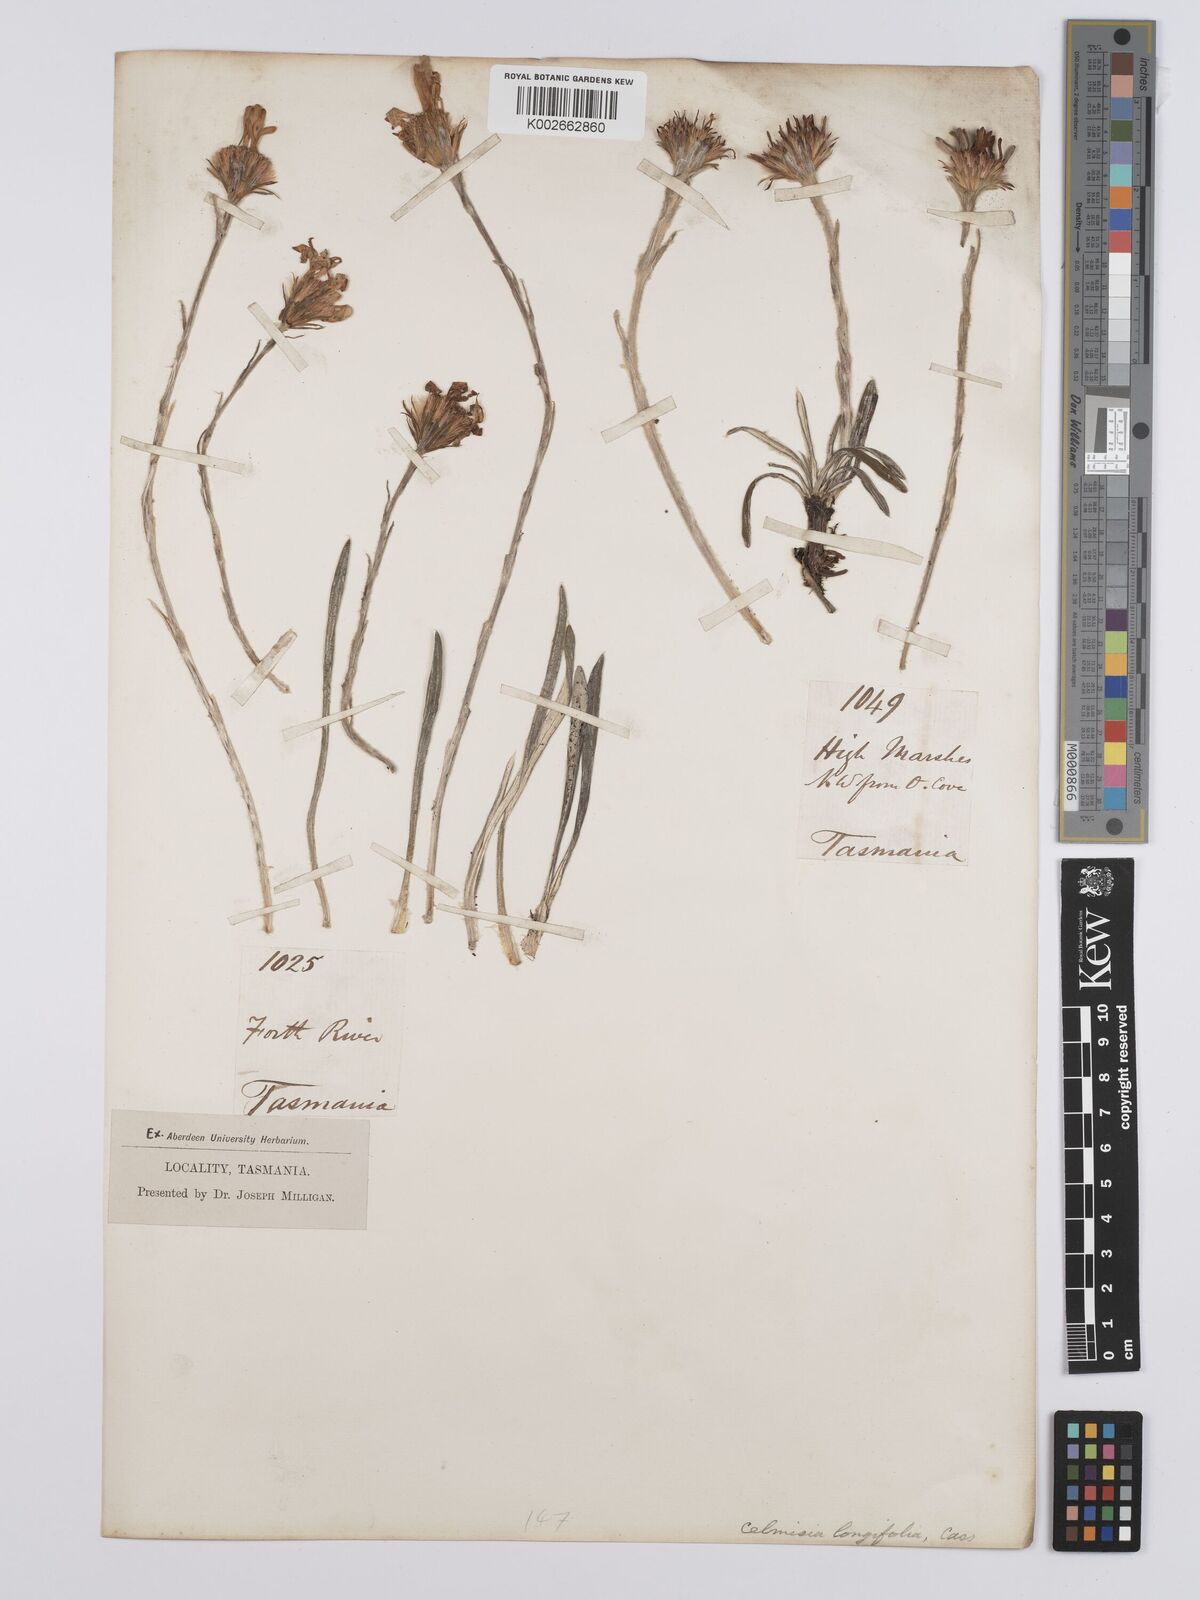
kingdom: Plantae
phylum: Tracheophyta
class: Magnoliopsida
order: Asterales
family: Asteraceae
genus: Celmisia
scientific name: Celmisia longifolia
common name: Silver snow daisy
